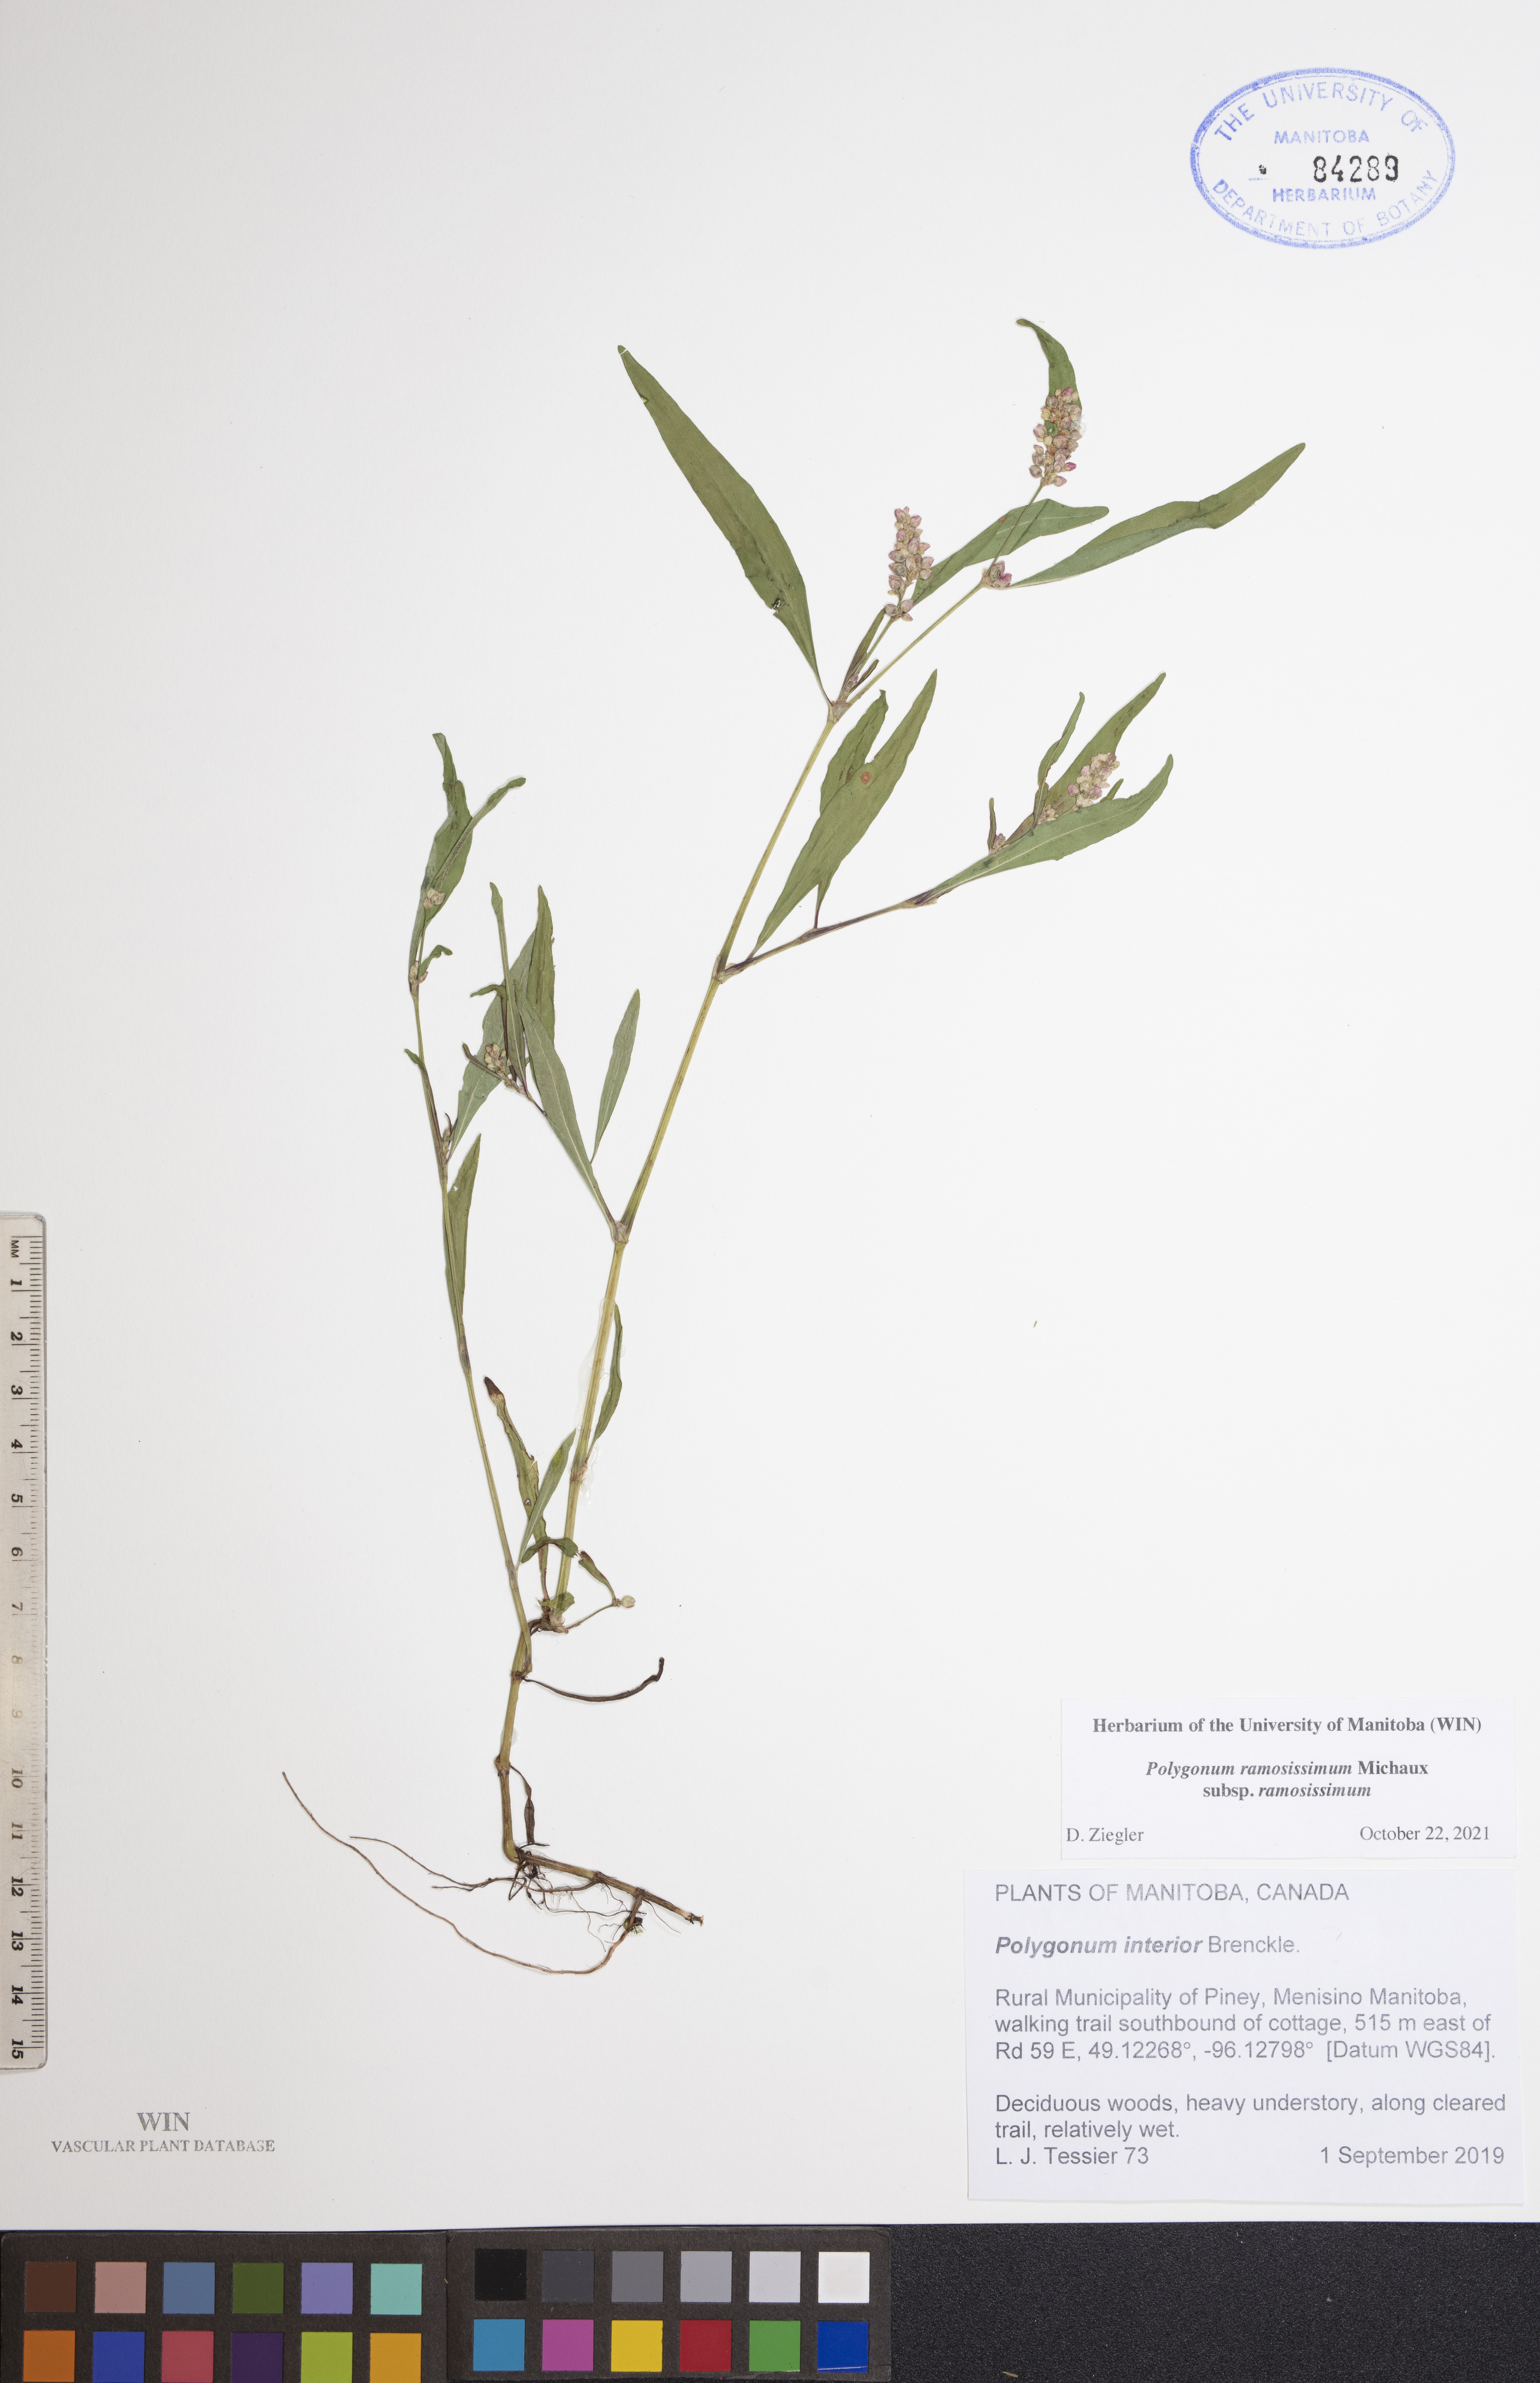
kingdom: Plantae
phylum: Tracheophyta
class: Magnoliopsida
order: Caryophyllales
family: Polygonaceae
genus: Polygonum
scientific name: Polygonum ramosissimum
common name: Bushy knotweed
